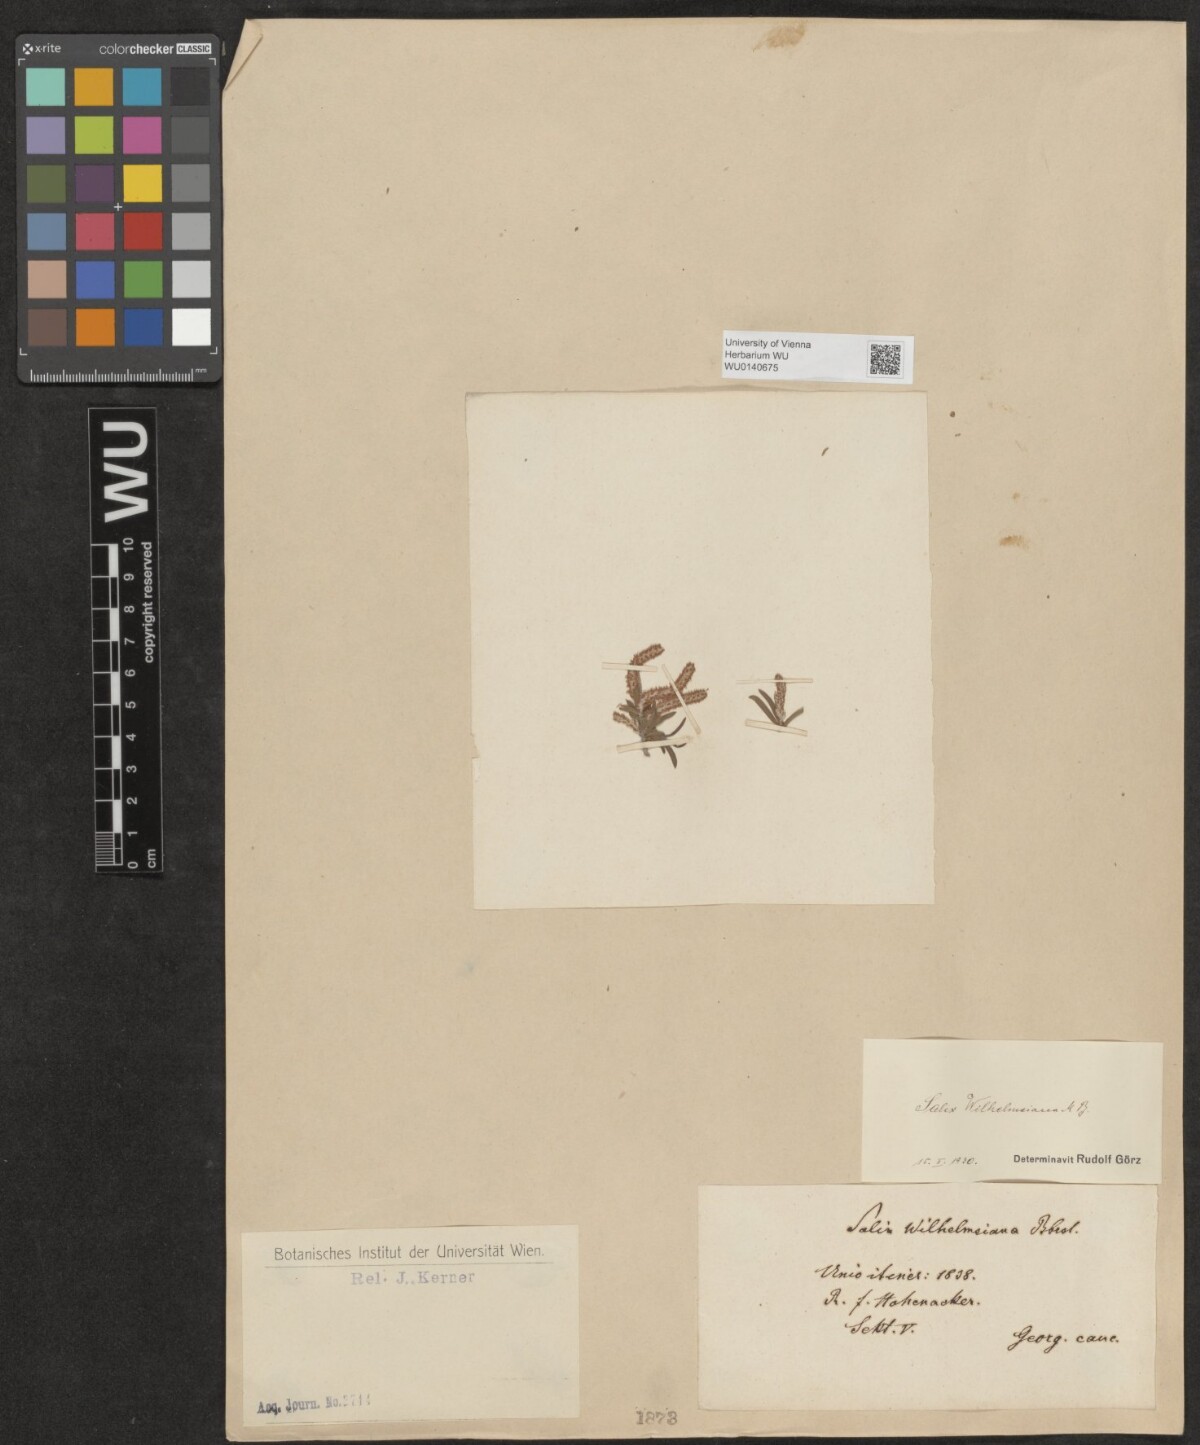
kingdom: Plantae
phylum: Tracheophyta
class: Magnoliopsida
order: Malpighiales
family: Salicaceae
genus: Salix
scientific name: Salix wilhelmsiana
